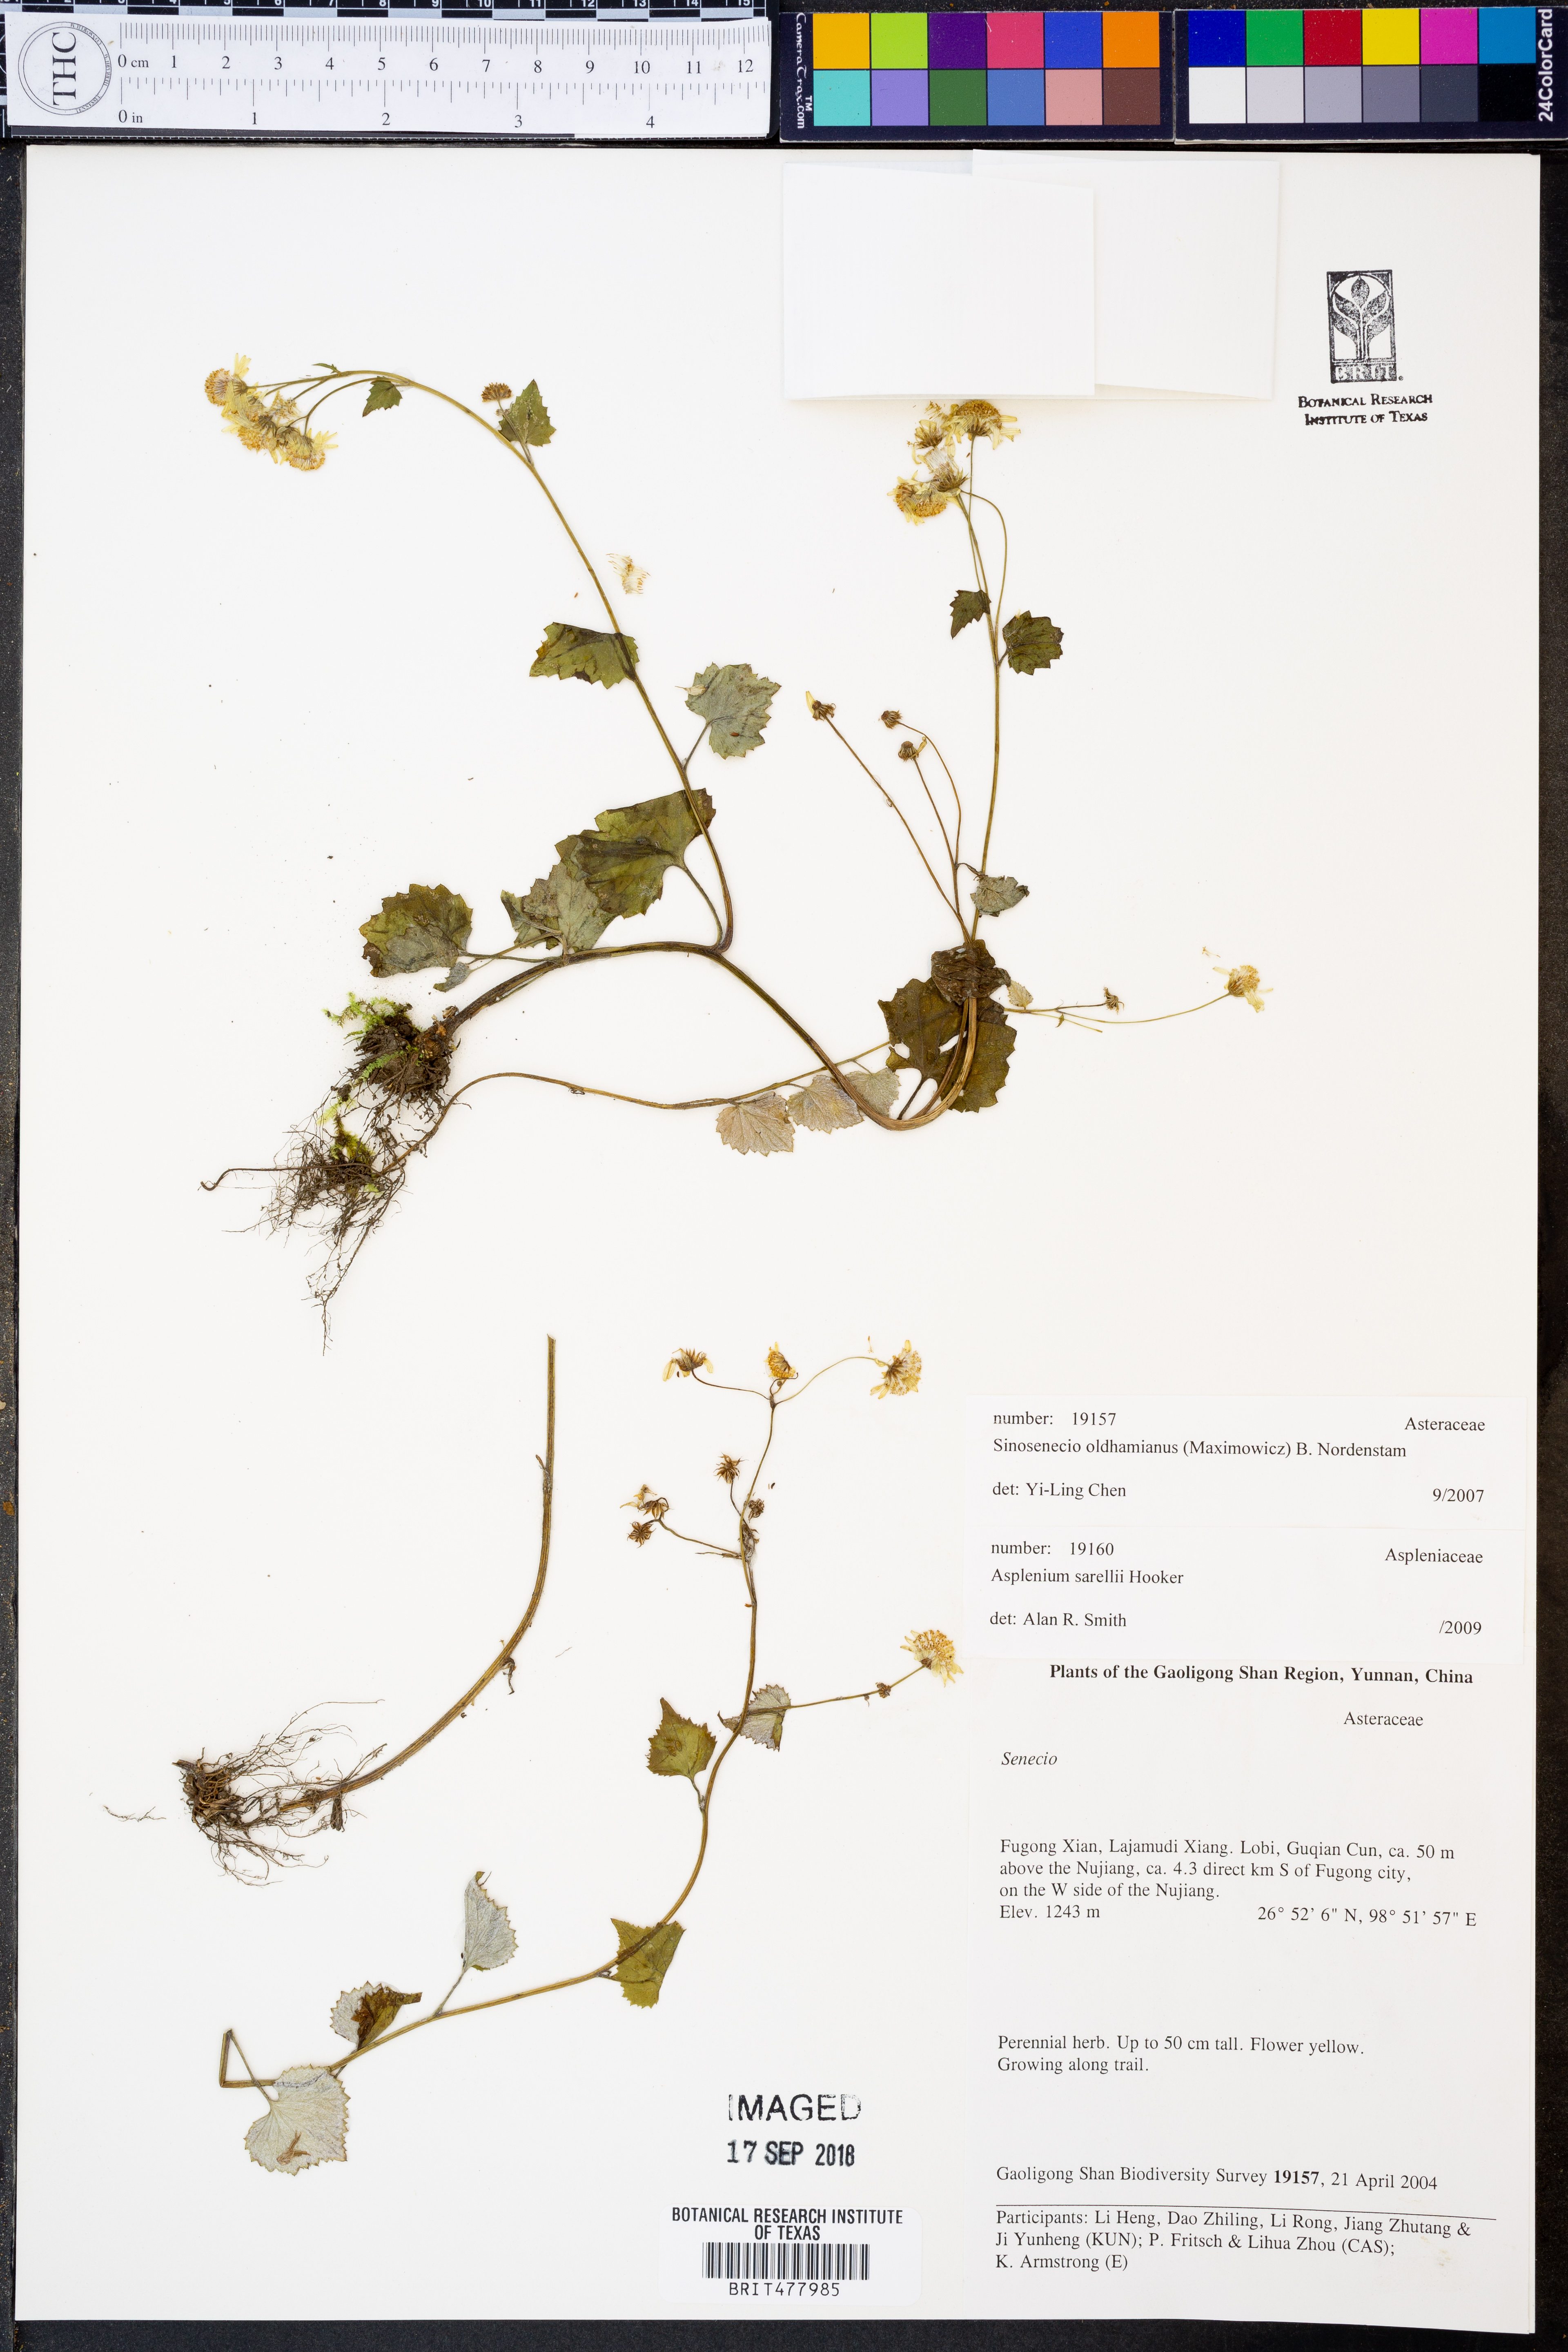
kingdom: Plantae
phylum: Tracheophyta
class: Magnoliopsida
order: Asterales
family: Asteraceae
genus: Sinosenecio
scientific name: Sinosenecio oldhamianus
